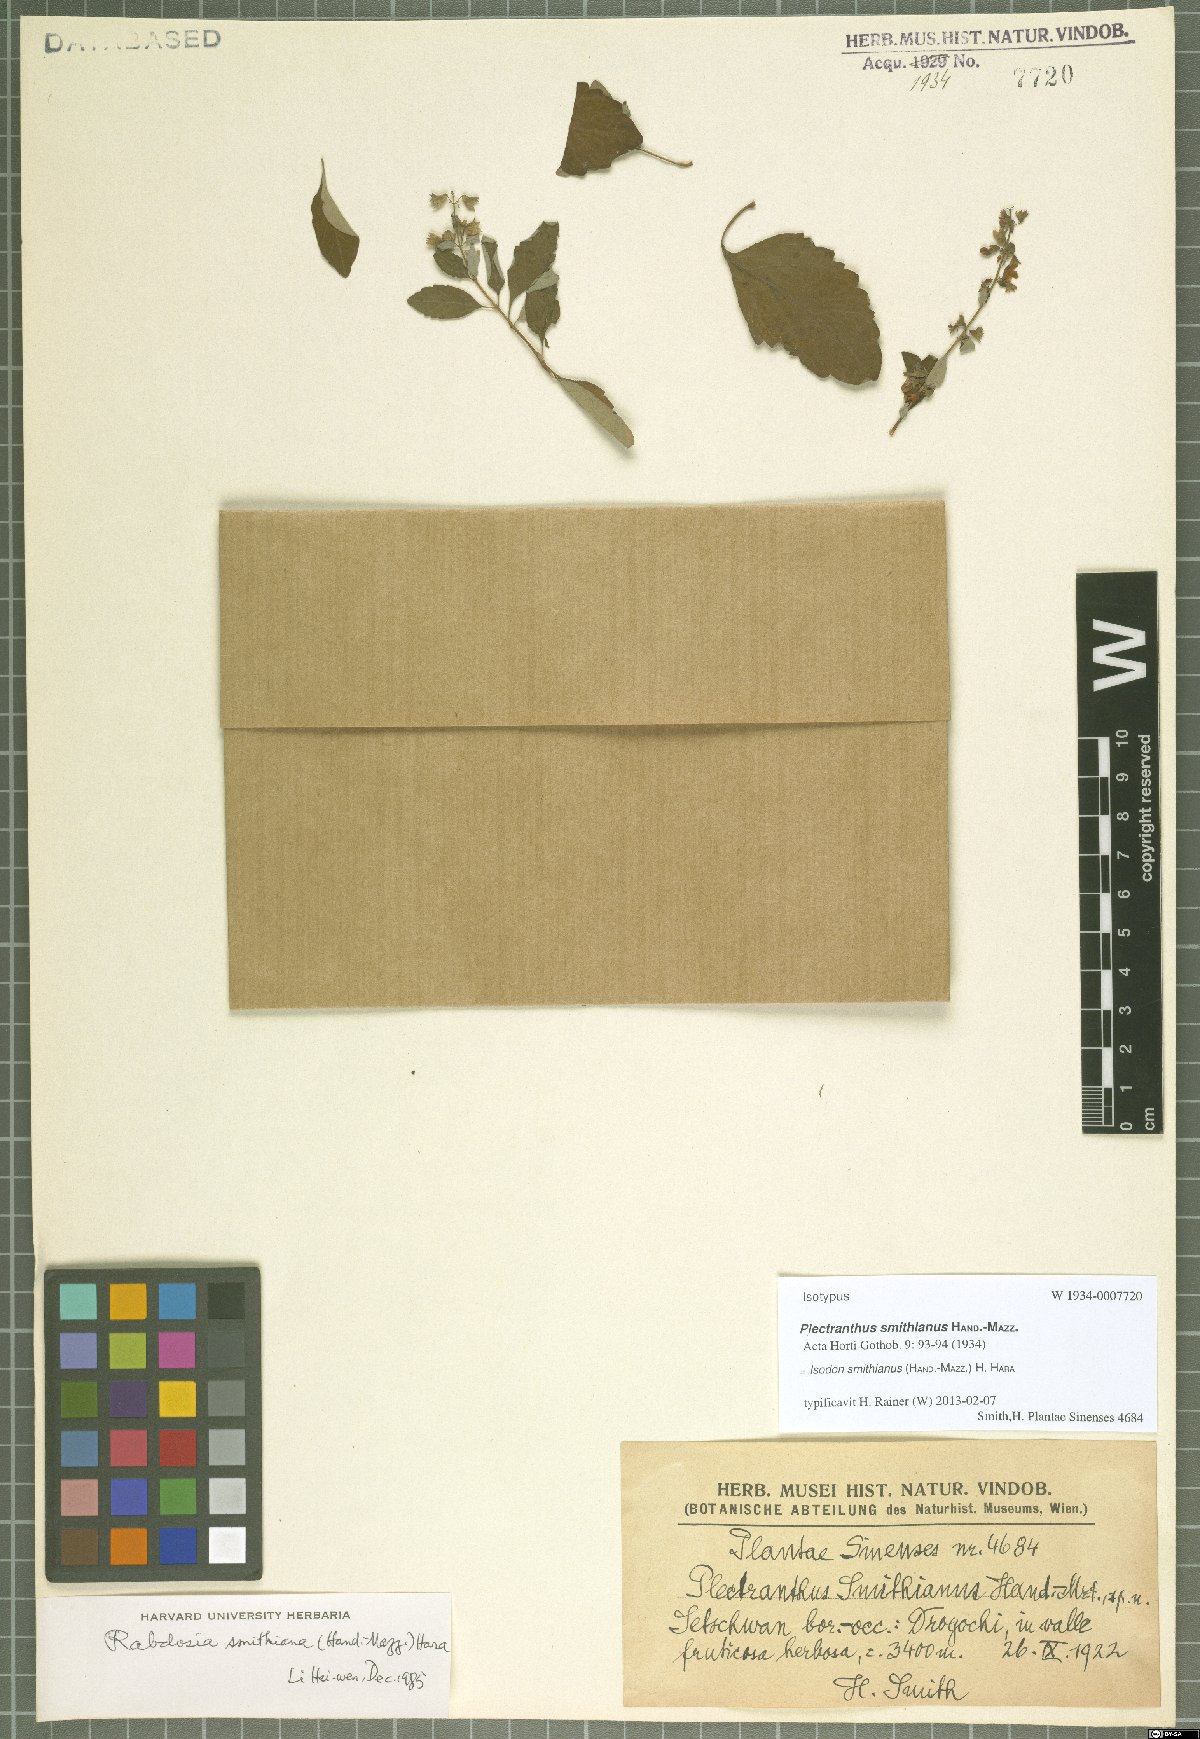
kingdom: Plantae
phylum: Tracheophyta
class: Magnoliopsida
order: Lamiales
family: Lamiaceae
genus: Isodon
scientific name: Isodon smithianus
